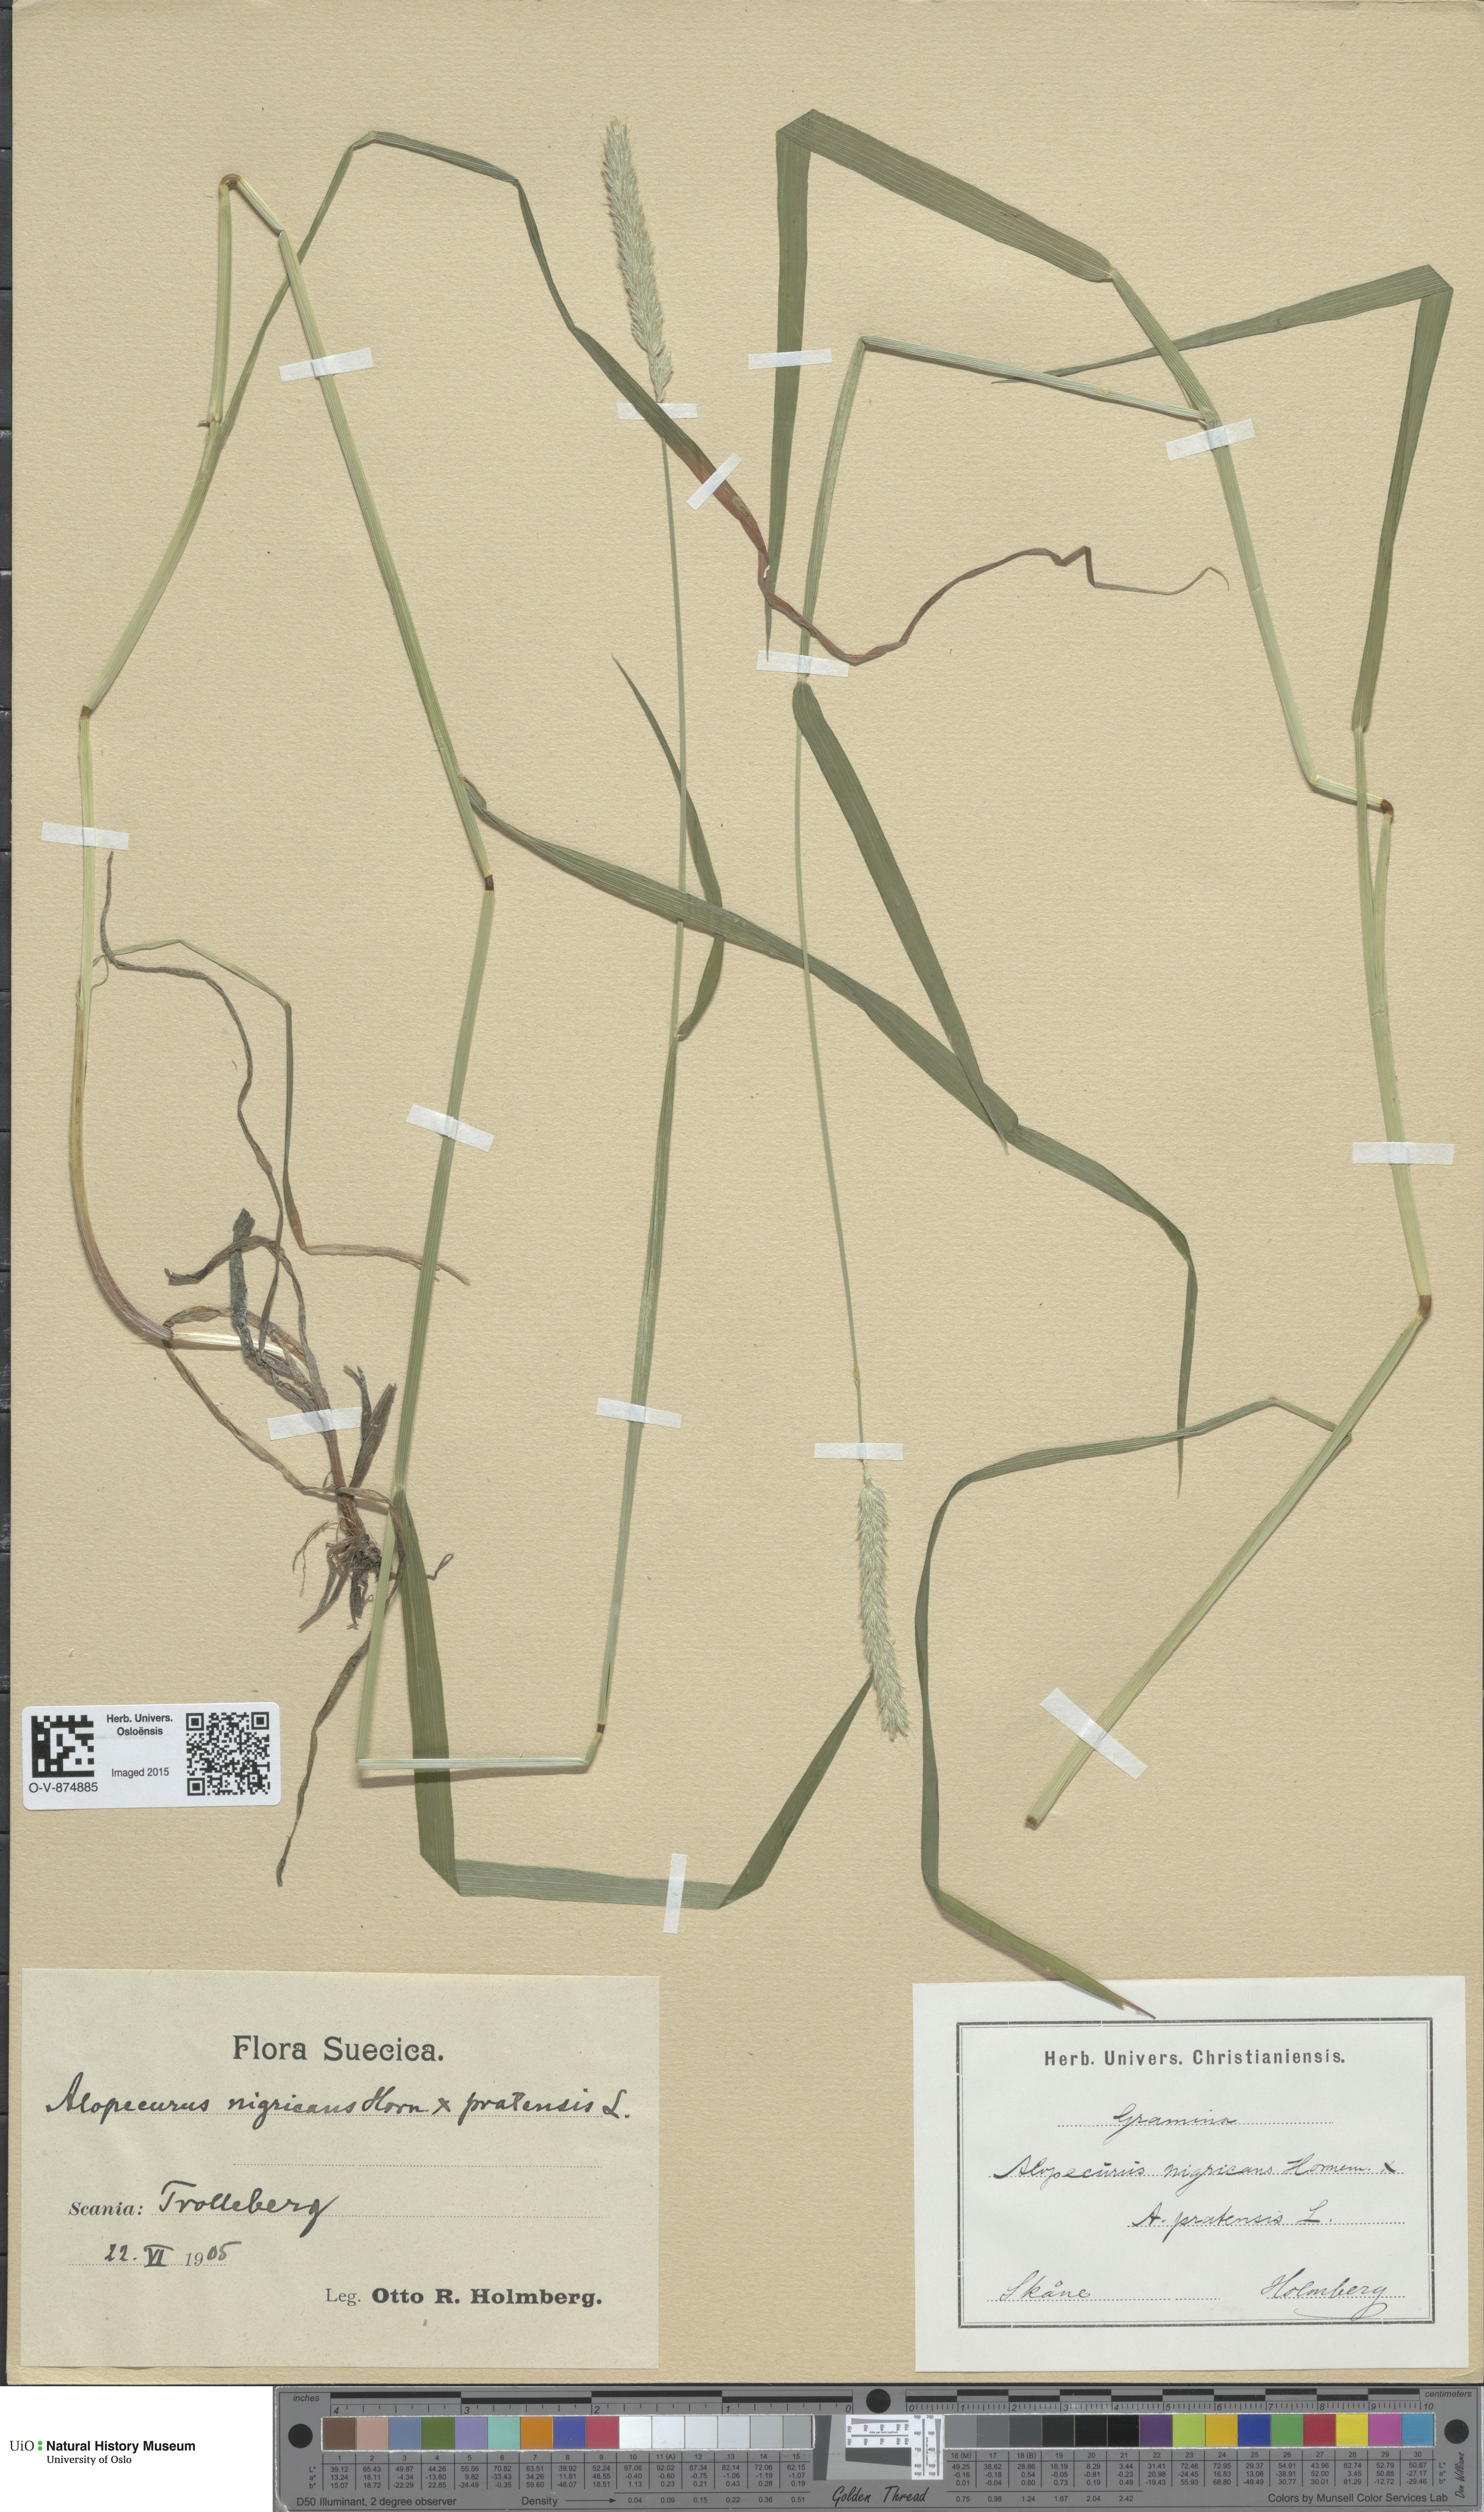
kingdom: Plantae
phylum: Tracheophyta
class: Liliopsida
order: Poales
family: Poaceae
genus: Alopecurus
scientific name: Alopecurus
